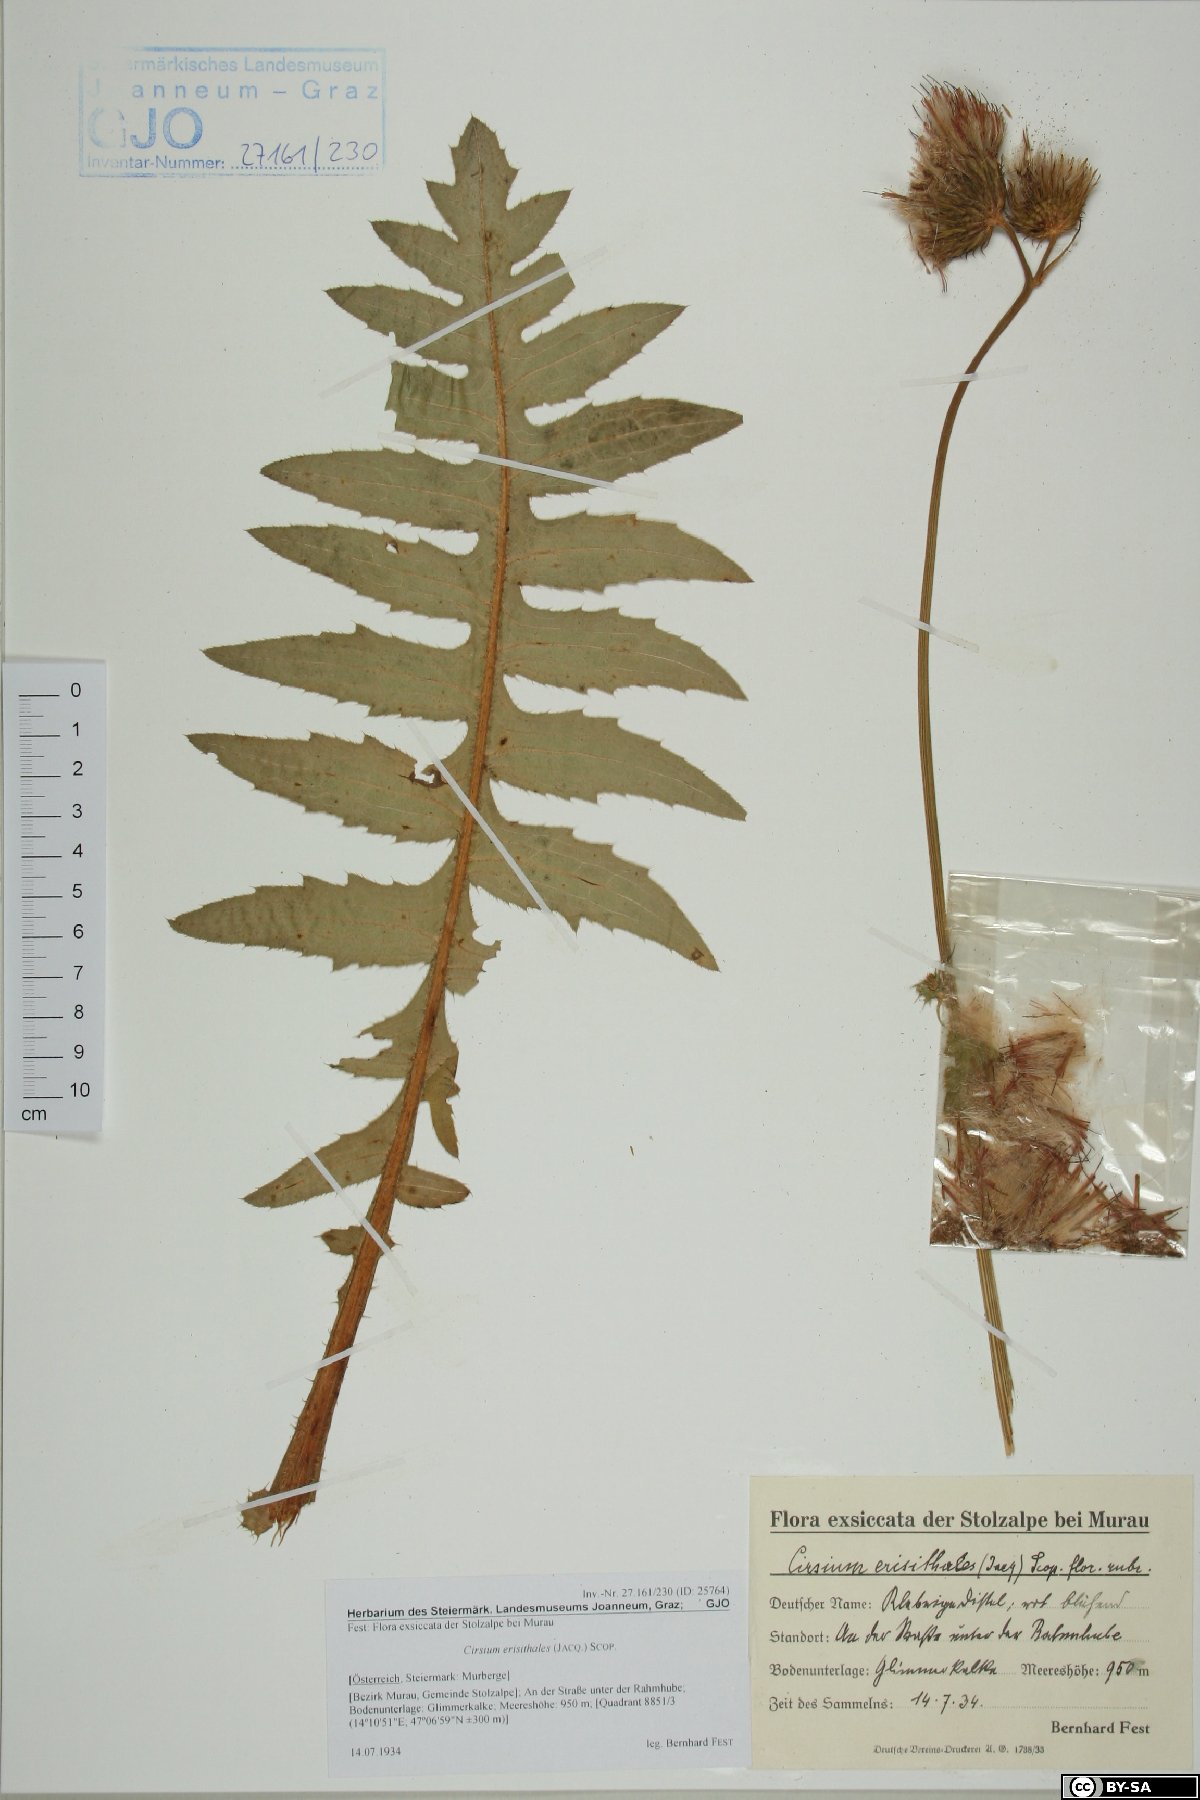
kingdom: Plantae
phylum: Tracheophyta
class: Magnoliopsida
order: Asterales
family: Asteraceae
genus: Cirsium
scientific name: Cirsium erisithales
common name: Yellow thistle
